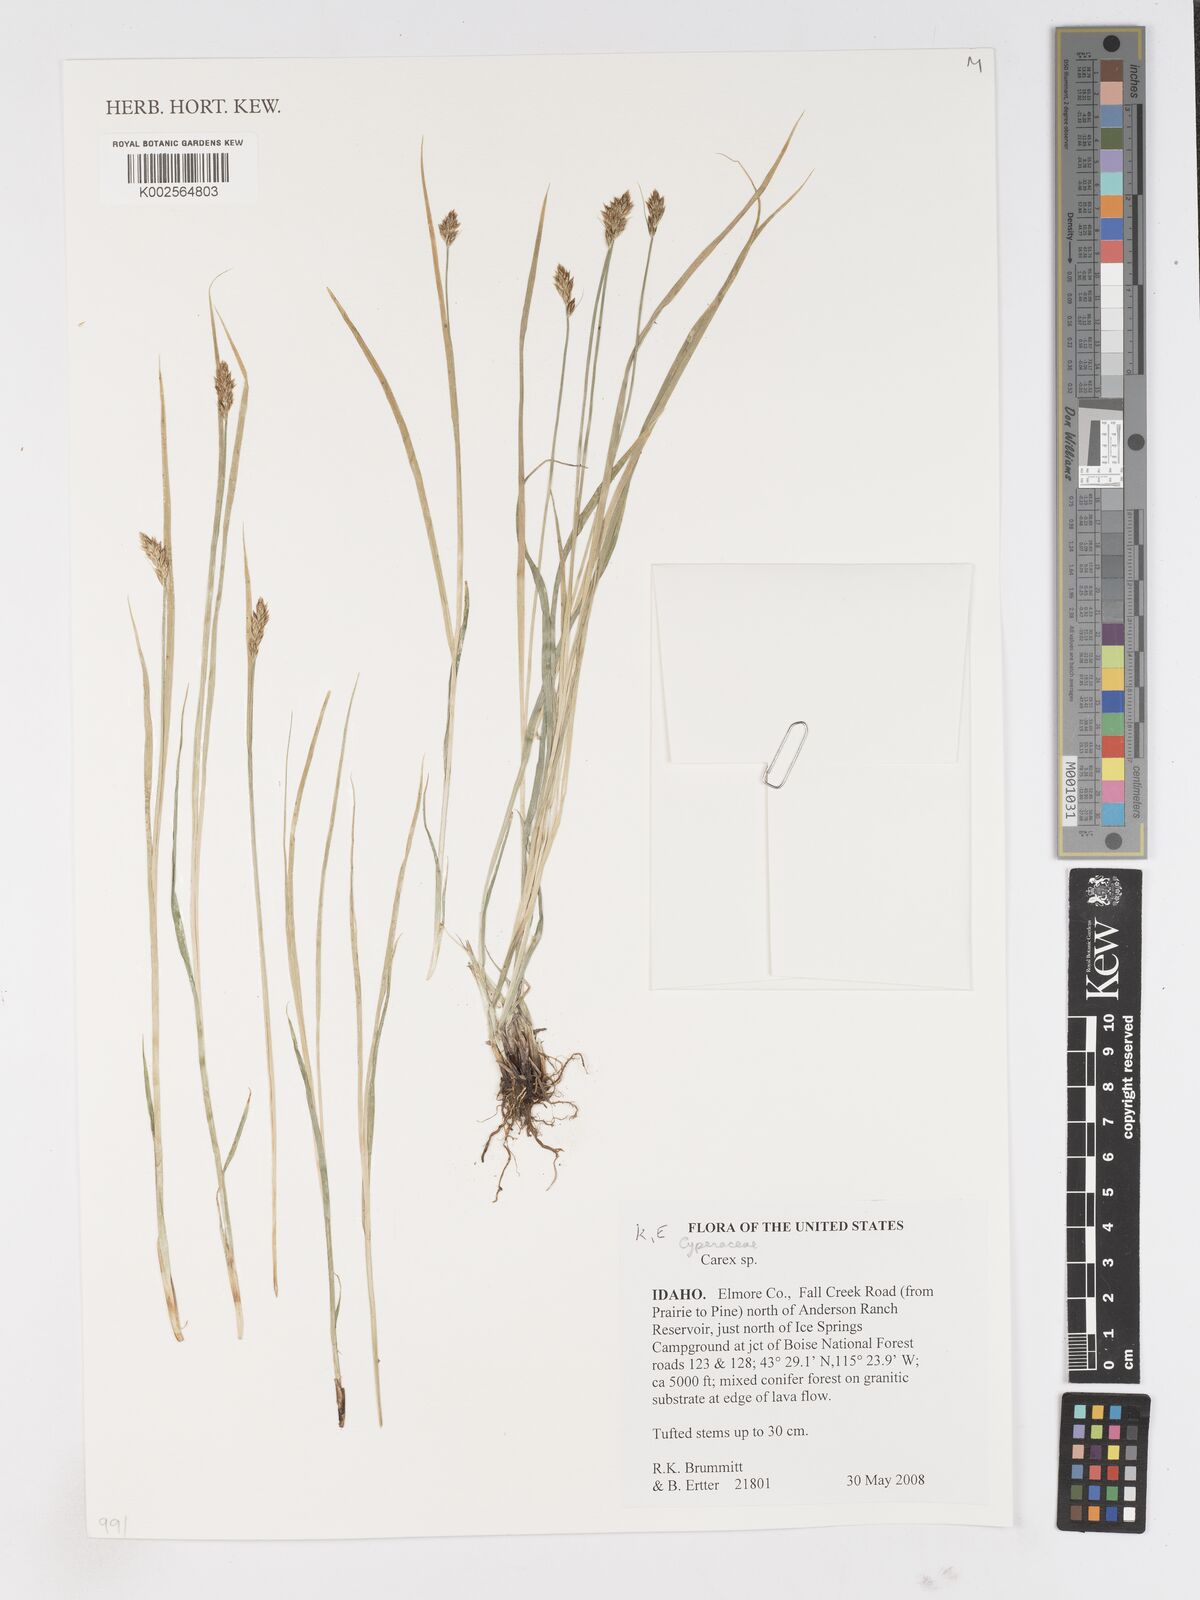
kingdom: Plantae
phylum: Tracheophyta
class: Liliopsida
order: Poales
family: Cyperaceae
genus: Carex
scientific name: Carex
